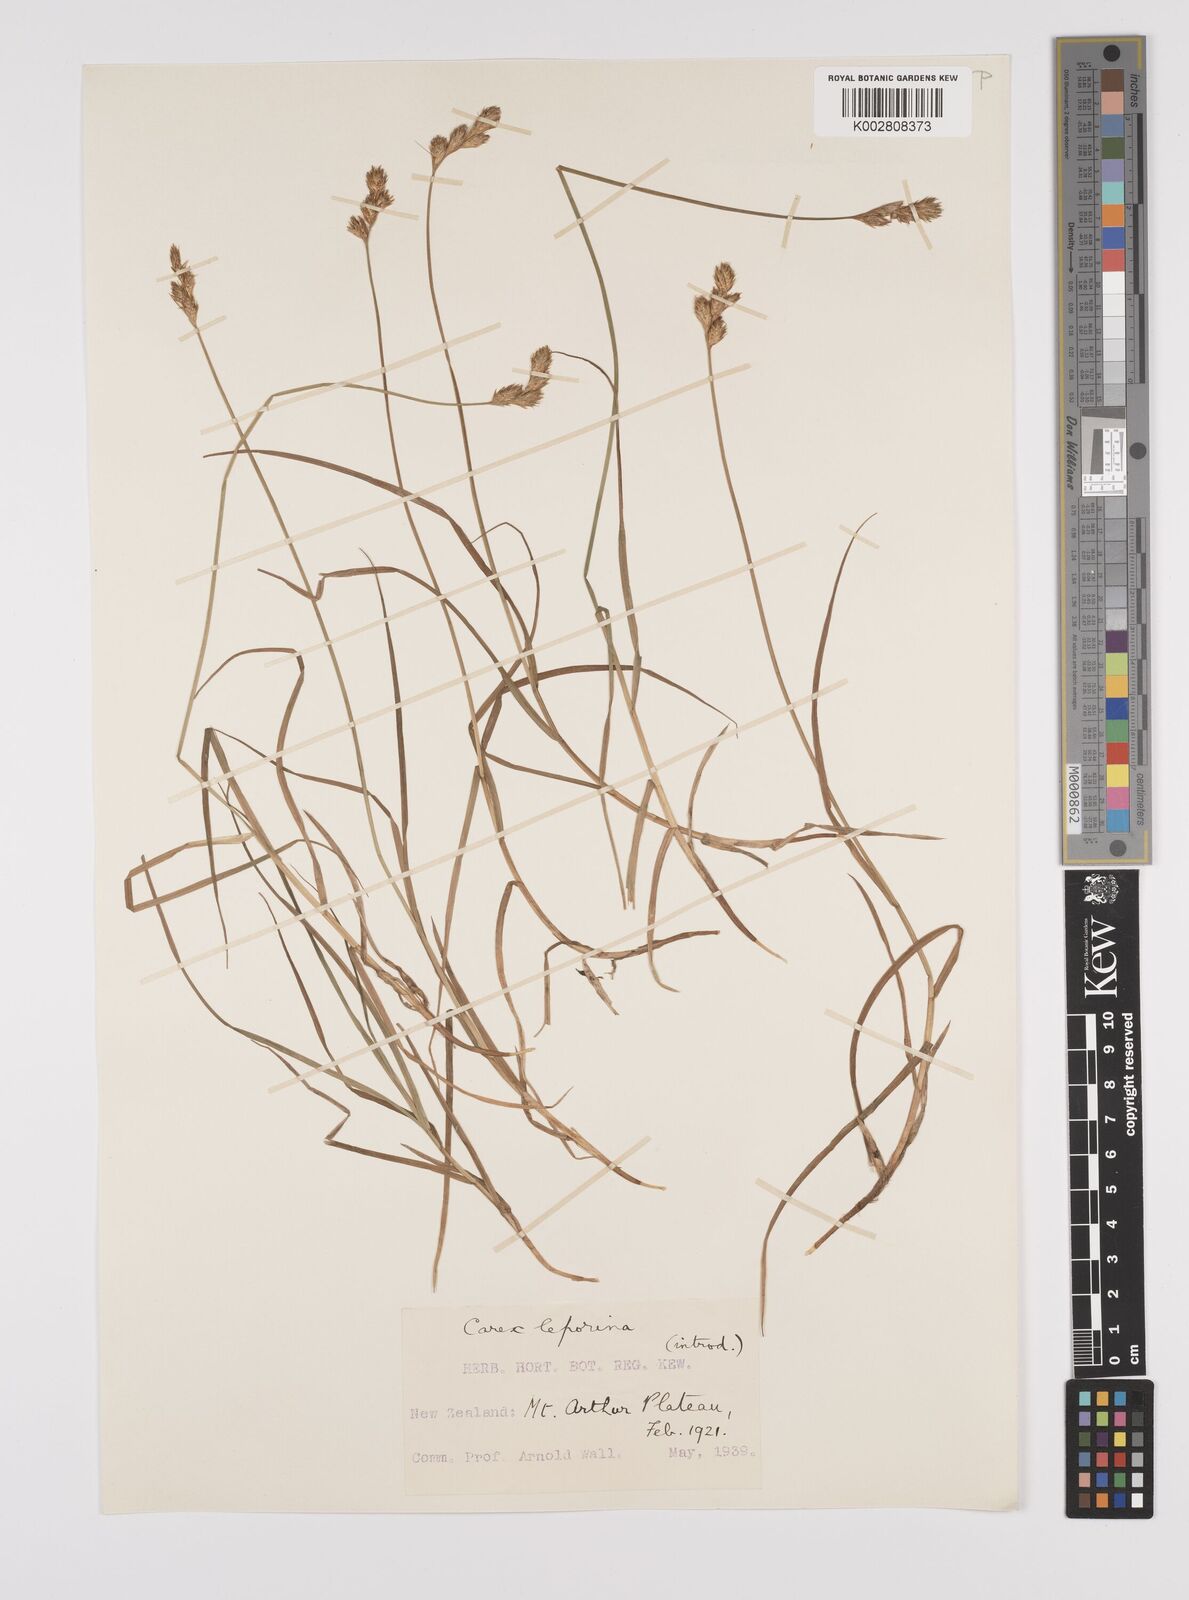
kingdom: Plantae
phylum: Tracheophyta
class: Liliopsida
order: Poales
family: Cyperaceae
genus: Carex
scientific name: Carex leporina
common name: Oval sedge
